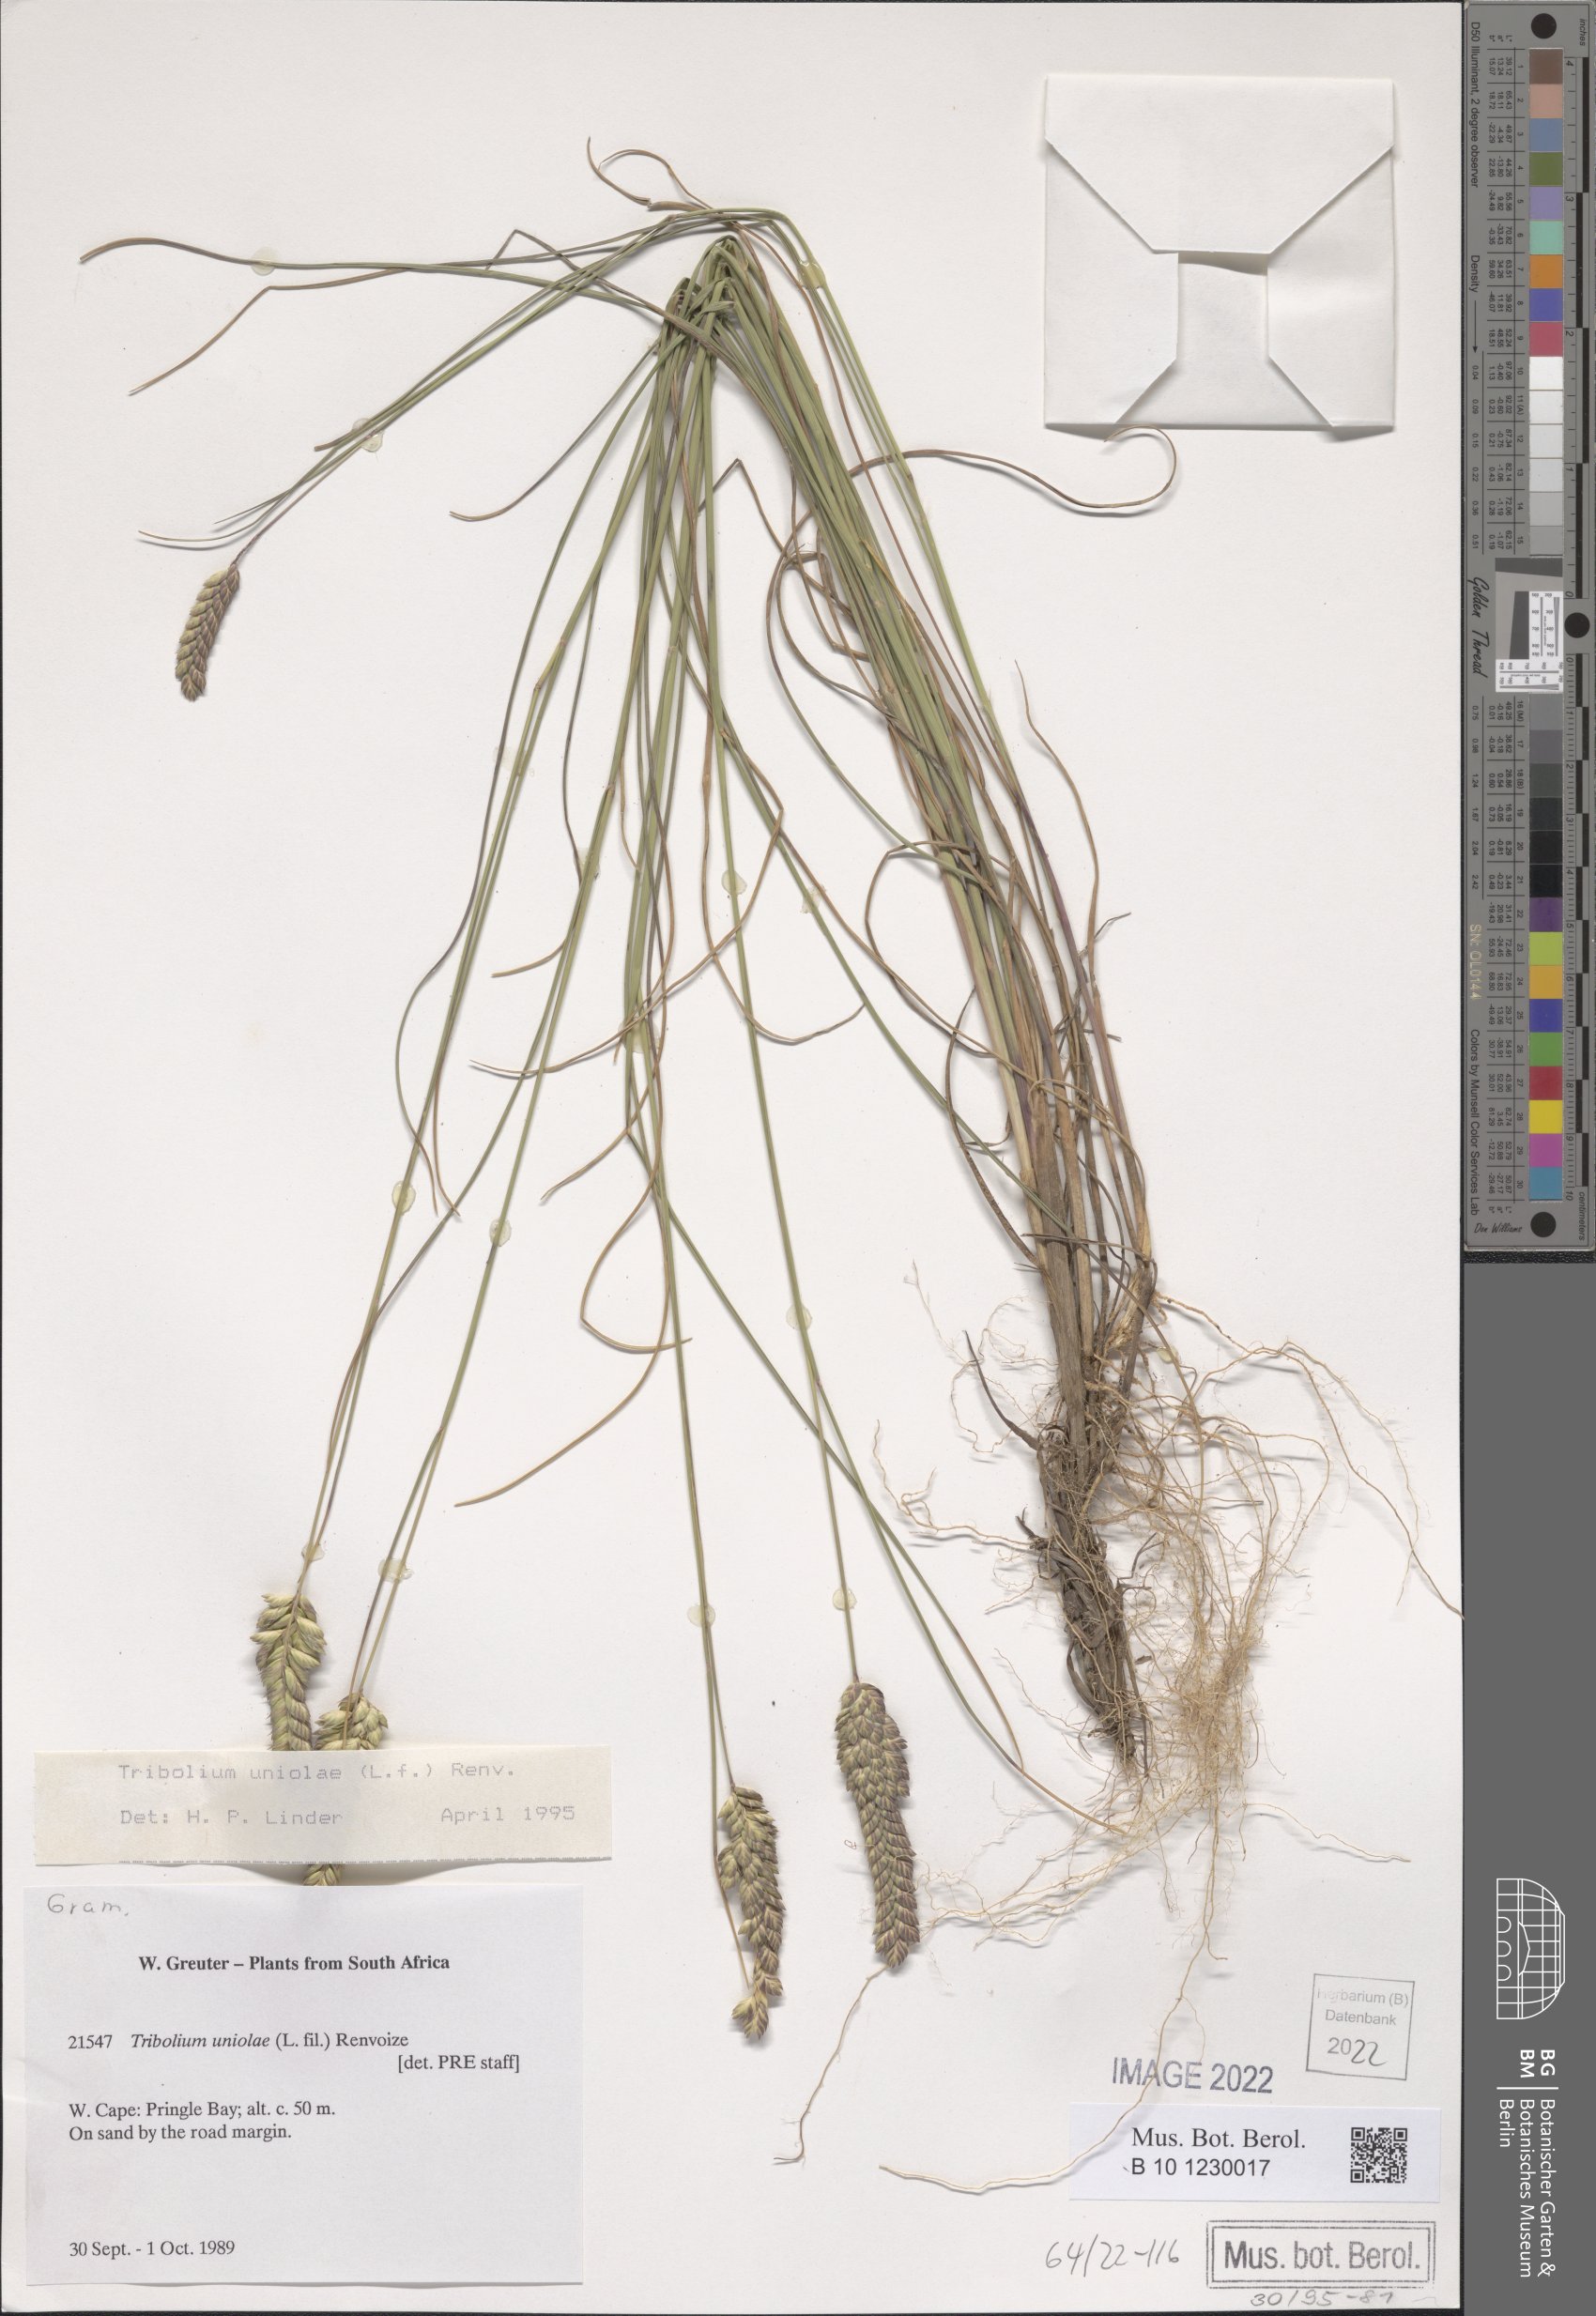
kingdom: Plantae
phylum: Tracheophyta
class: Liliopsida
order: Poales
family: Poaceae
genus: Tribolium
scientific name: Tribolium uniolae
